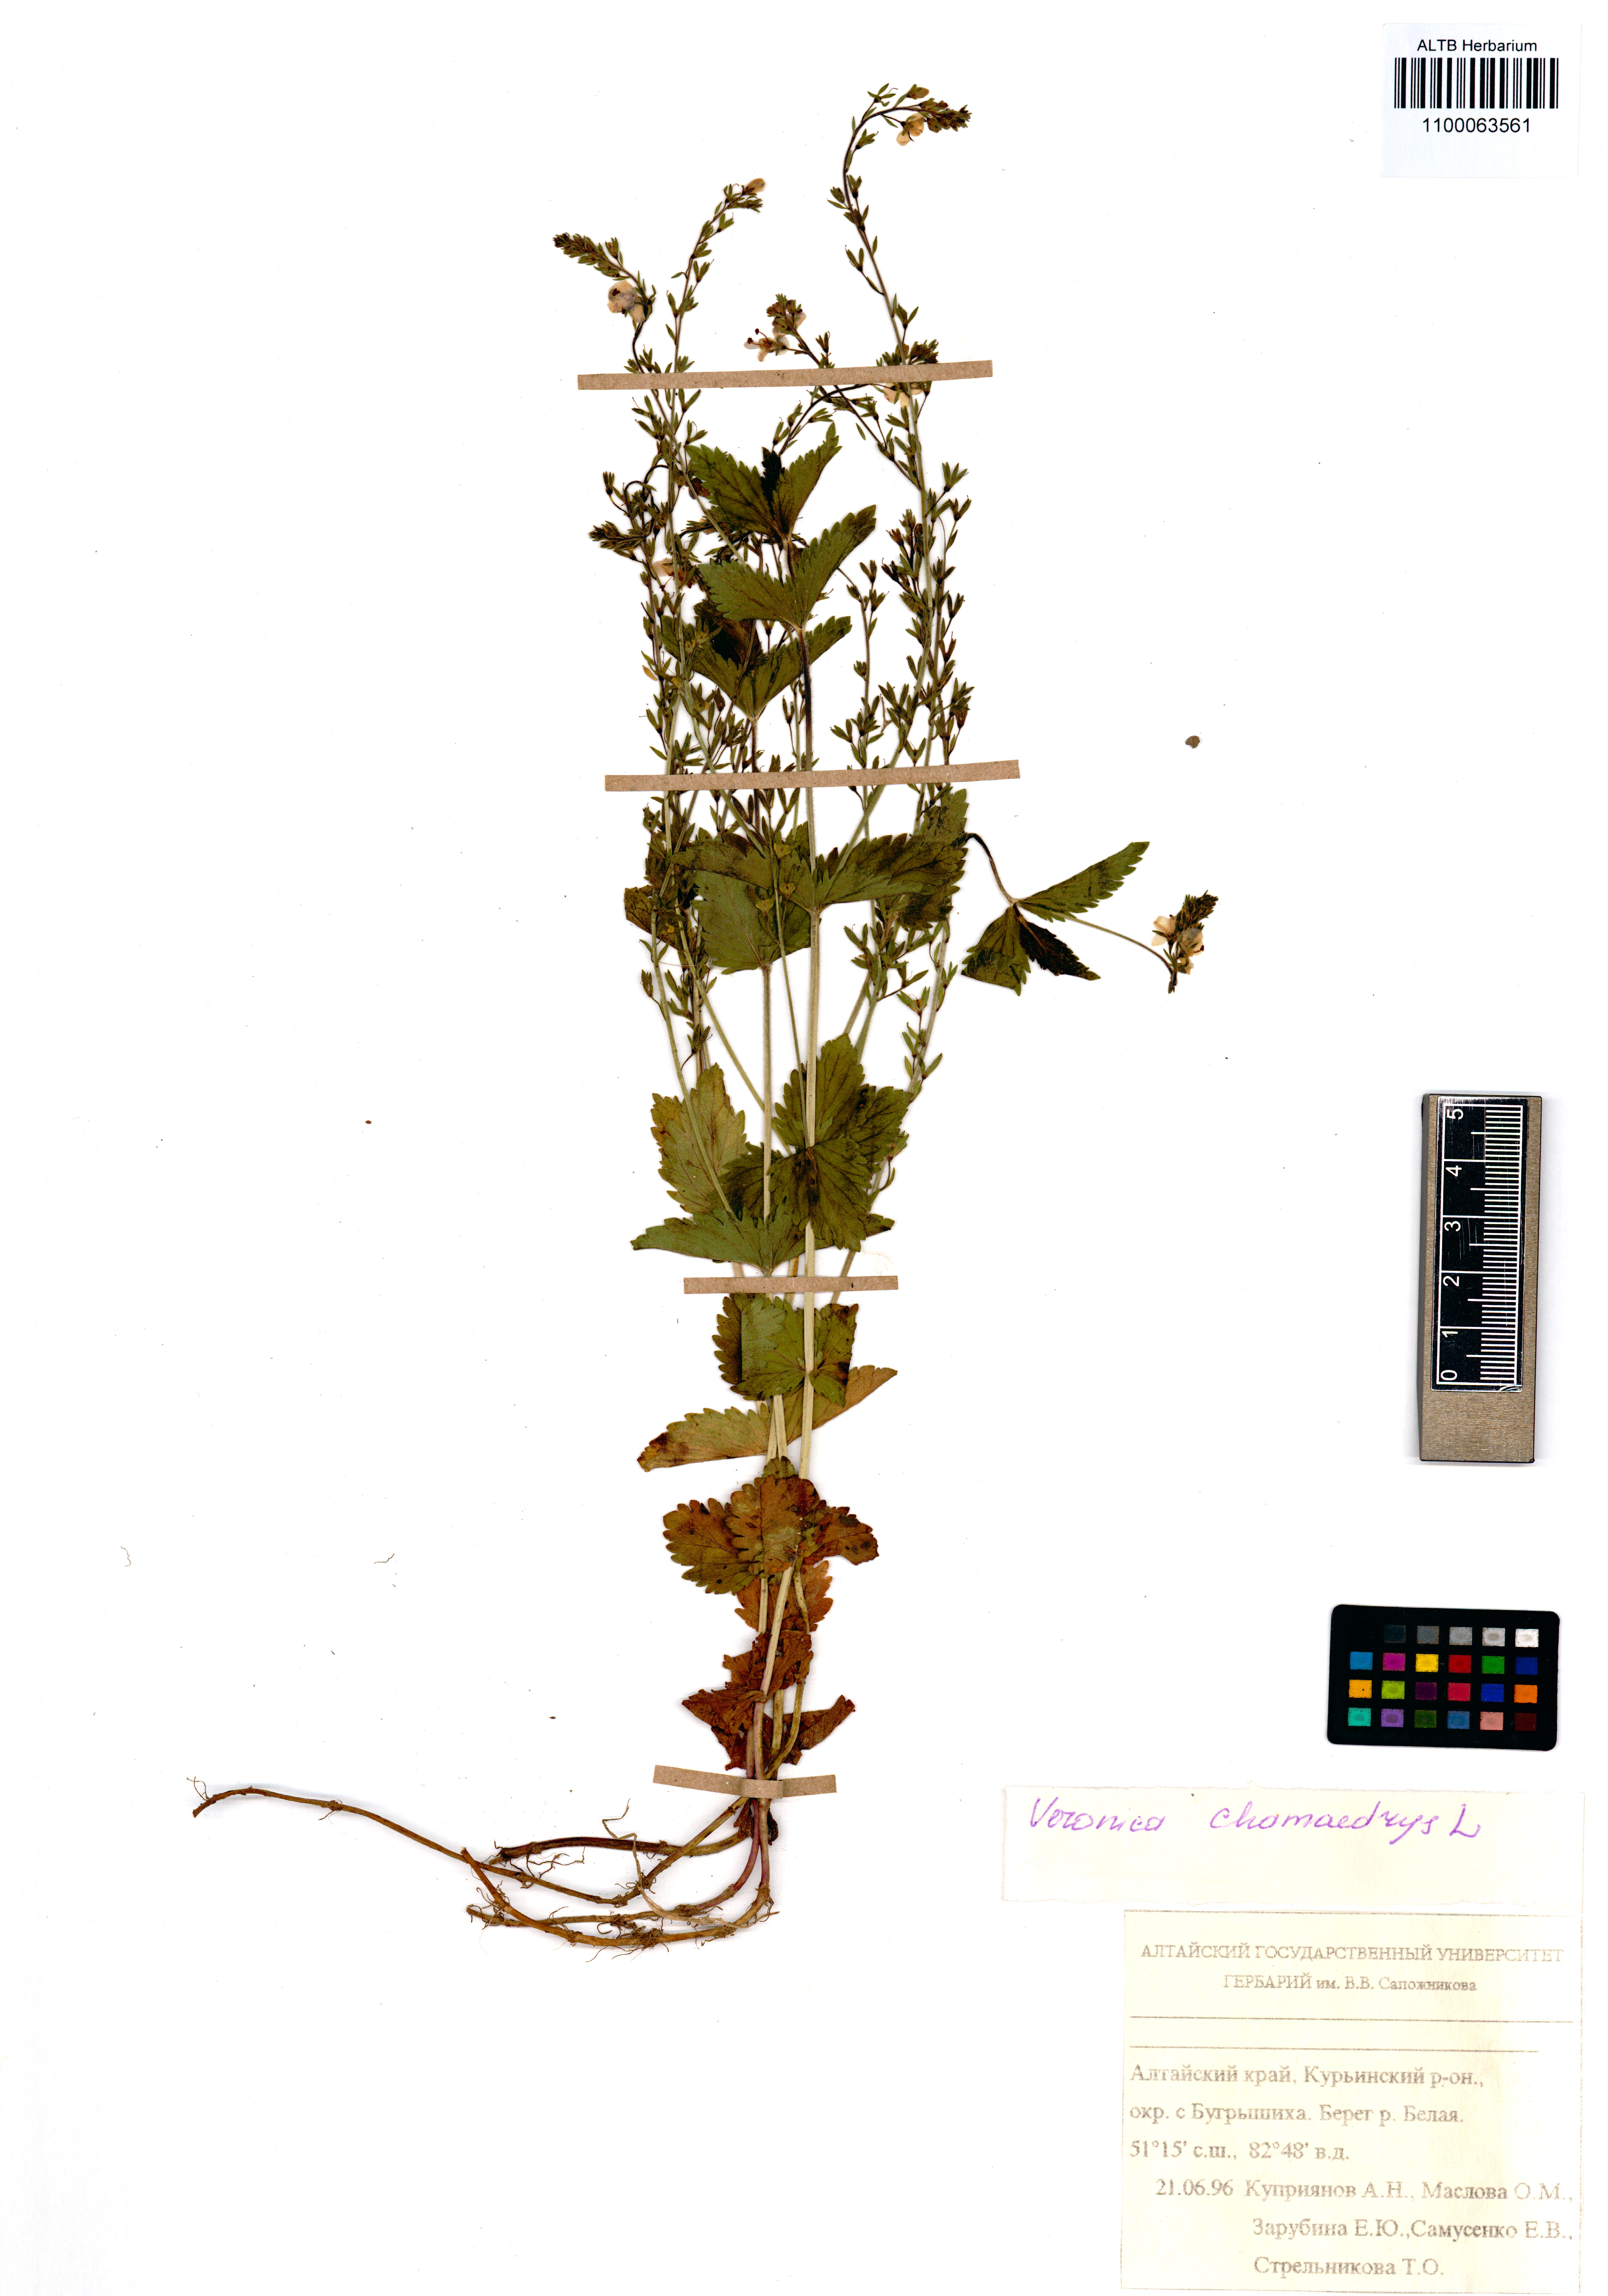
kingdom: Plantae
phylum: Tracheophyta
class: Magnoliopsida
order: Lamiales
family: Plantaginaceae
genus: Veronica
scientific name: Veronica chamaedrys
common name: Germander speedwell
